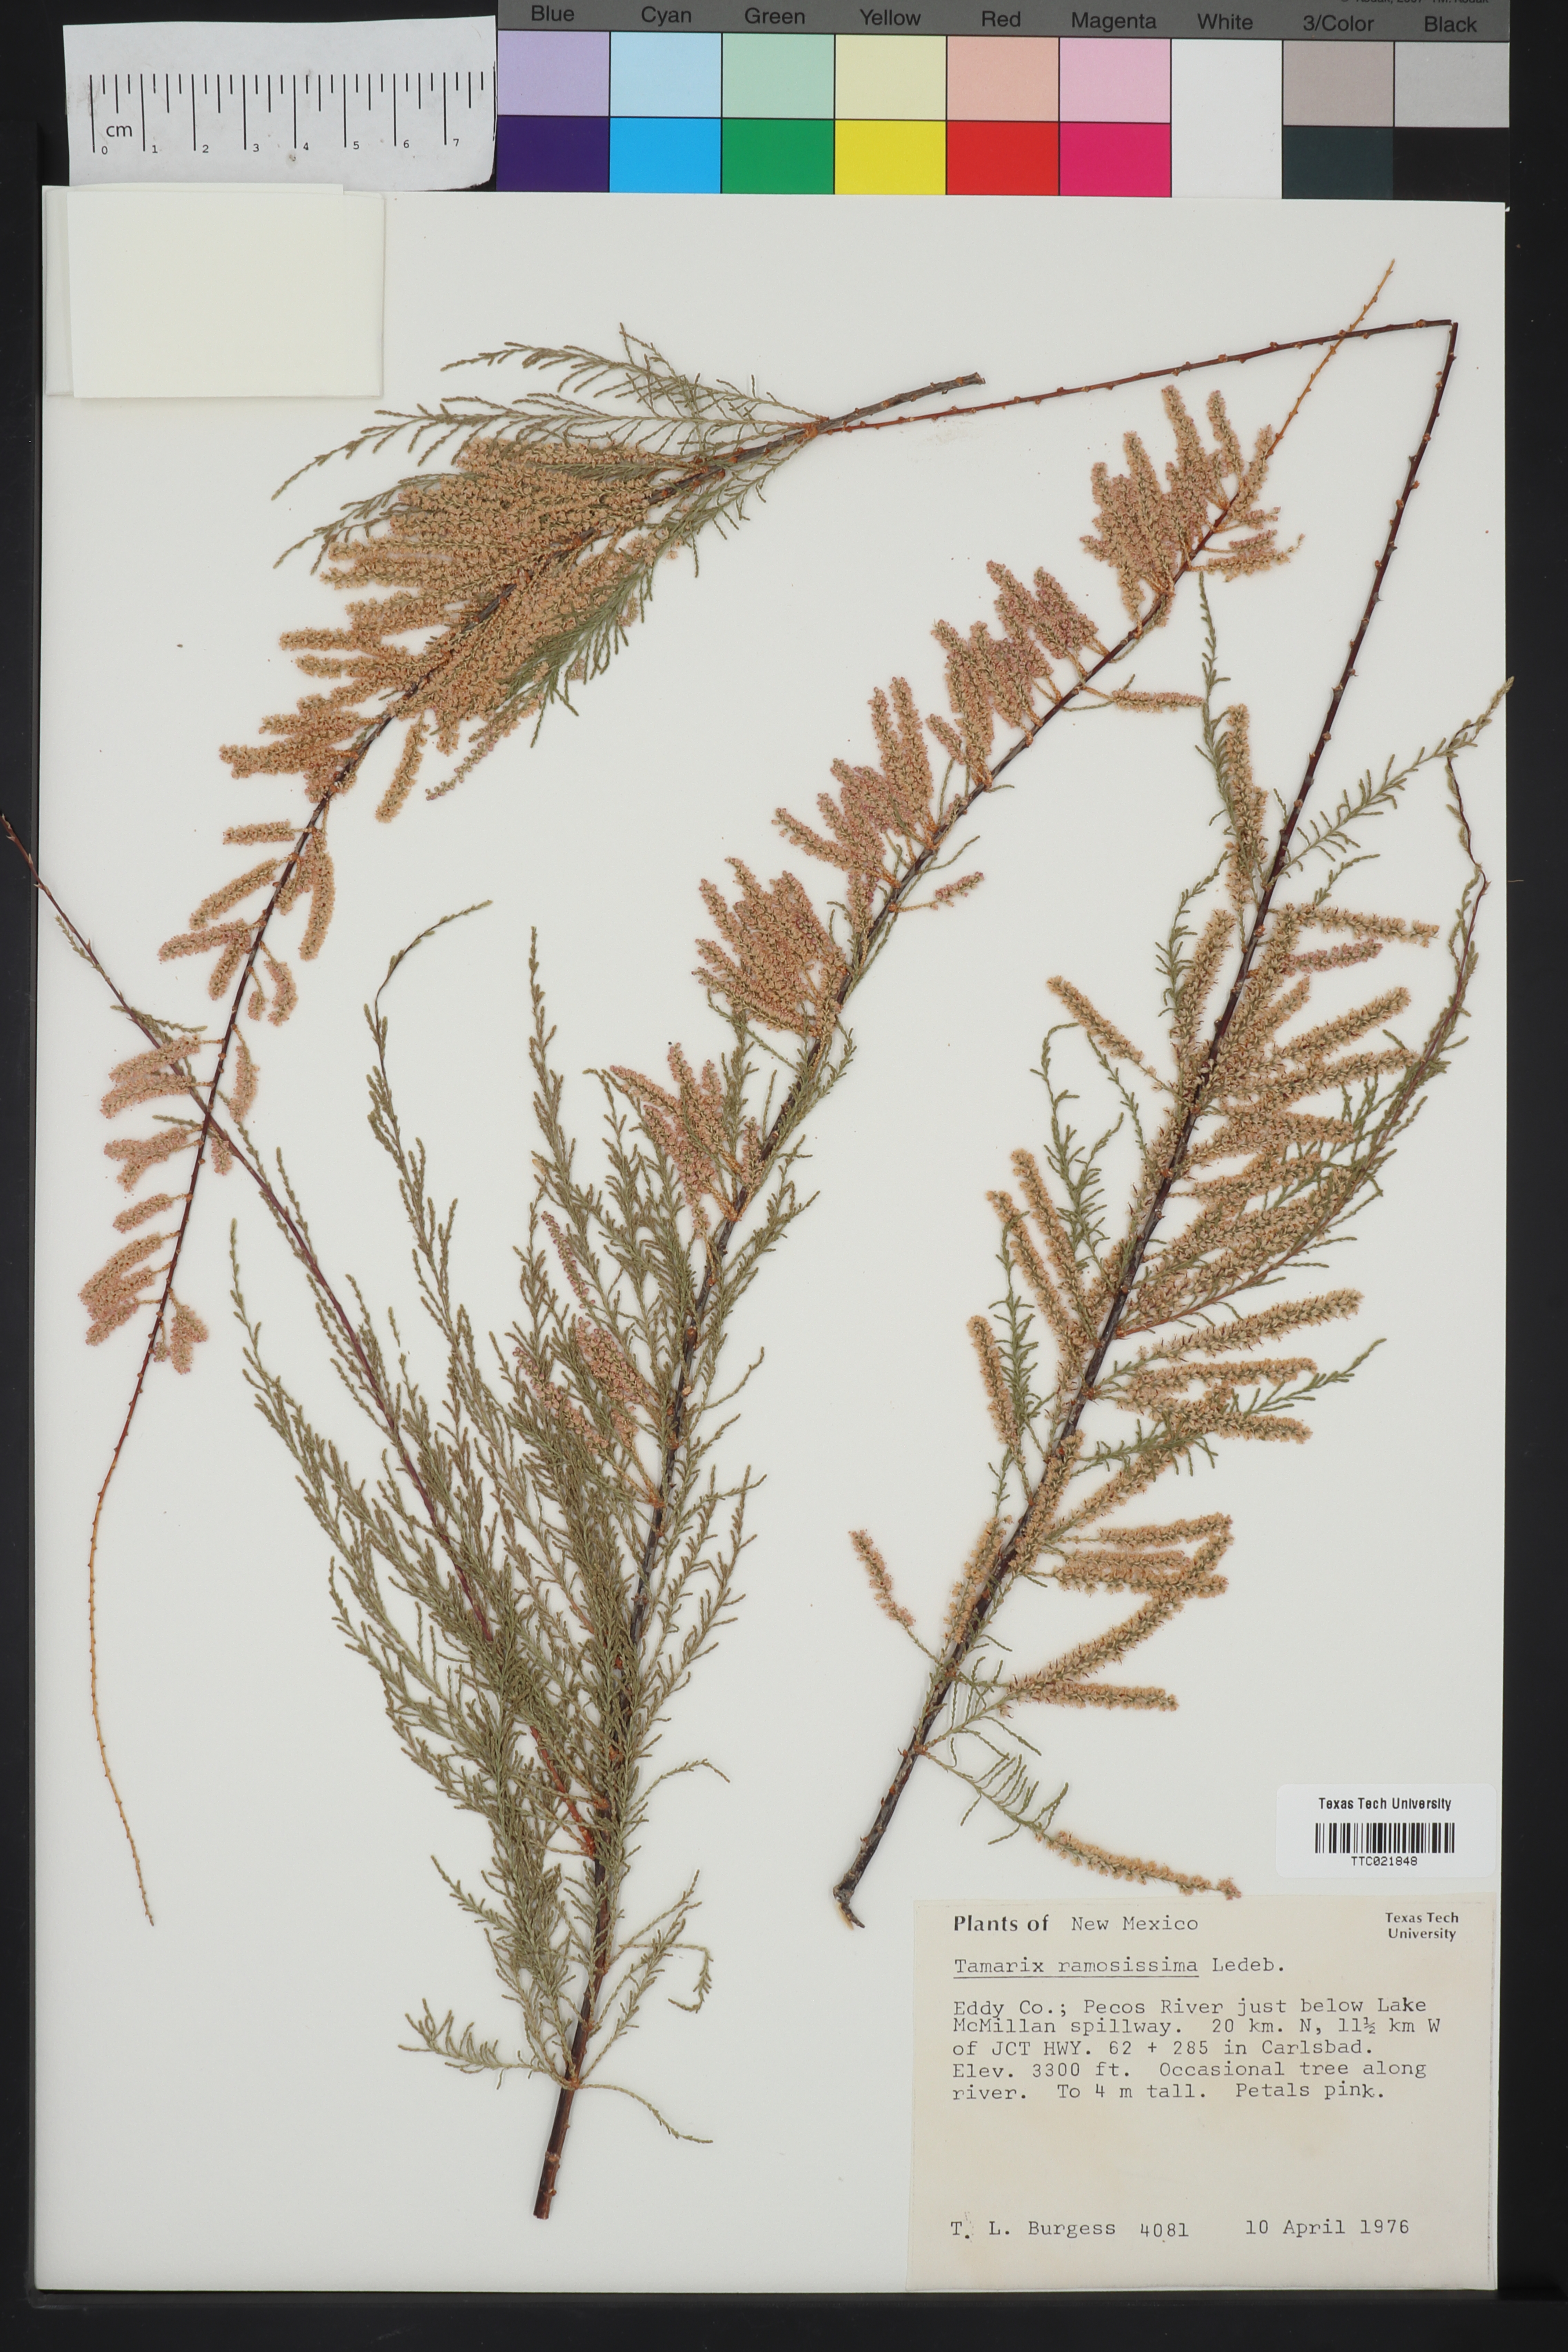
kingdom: Plantae
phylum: Tracheophyta
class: Magnoliopsida
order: Caryophyllales
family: Tamaricaceae
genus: Tamarix
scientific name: Tamarix ramosissima
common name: Pink tamarisk
